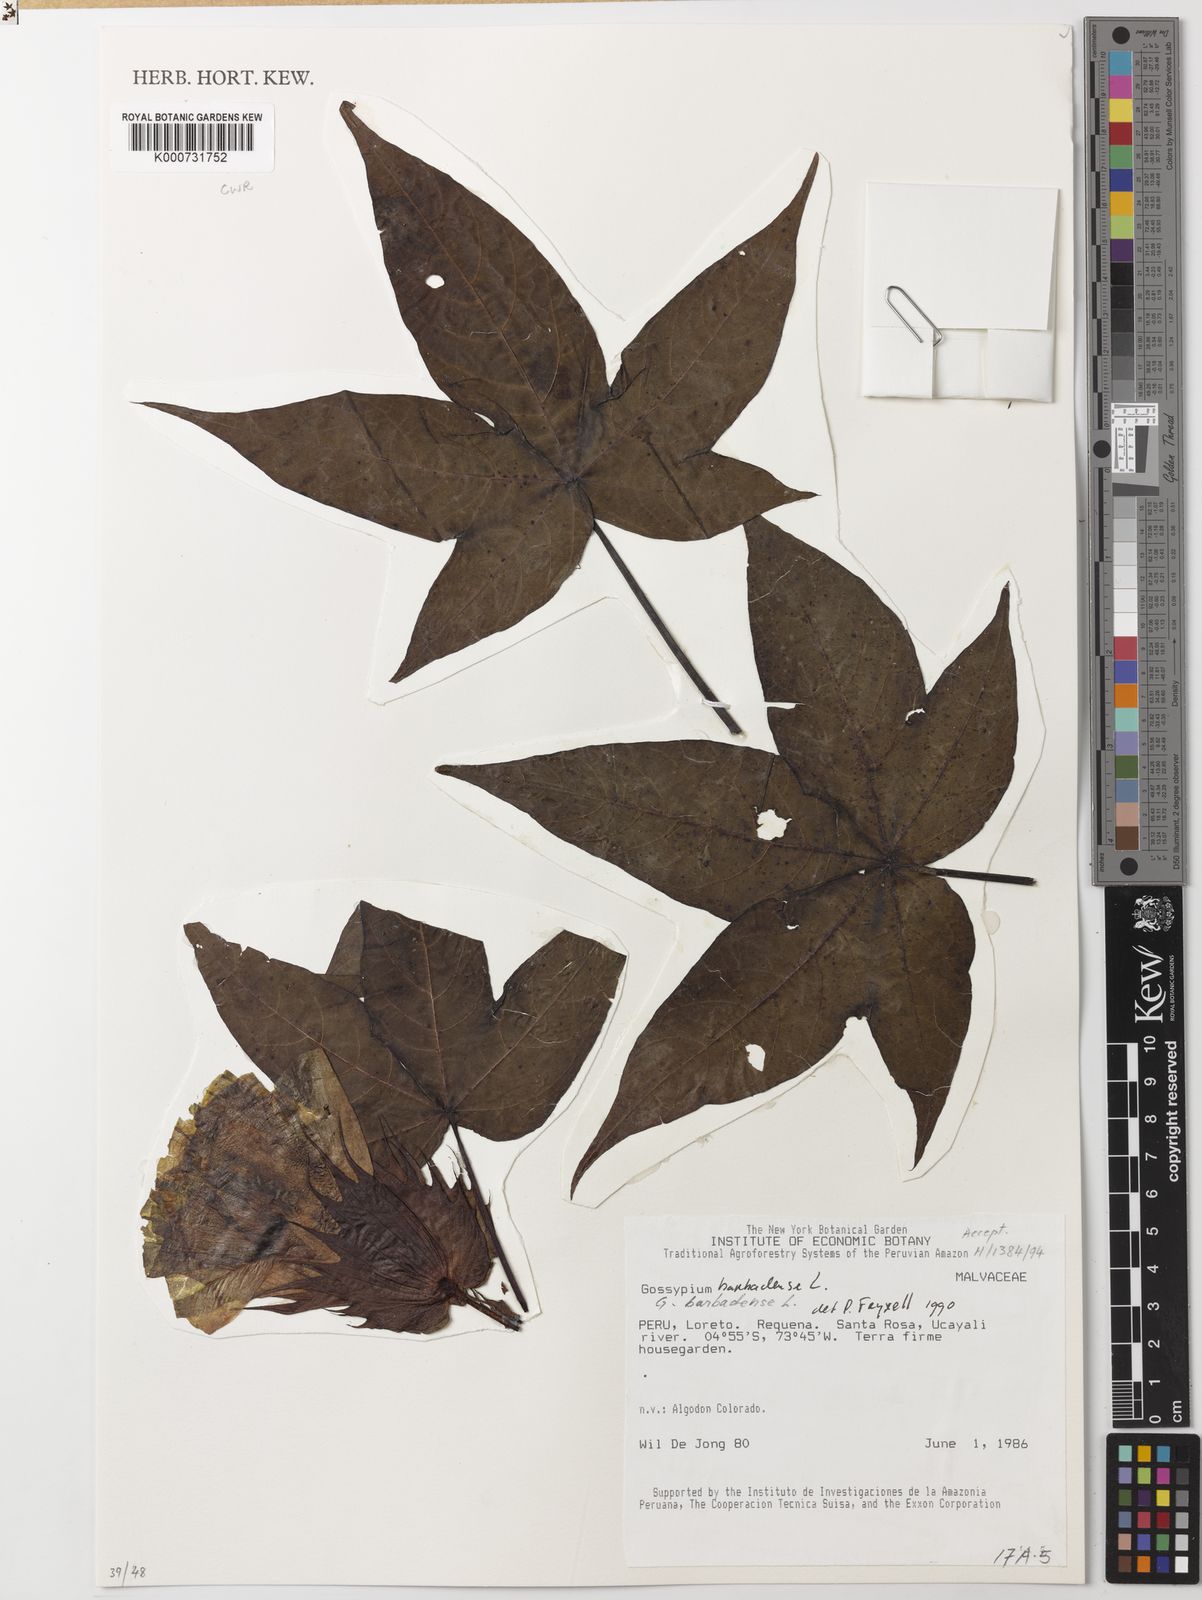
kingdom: Plantae
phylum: Tracheophyta
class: Magnoliopsida
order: Malvales
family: Malvaceae
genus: Gossypium
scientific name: Gossypium barbadense
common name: Creole cotton
